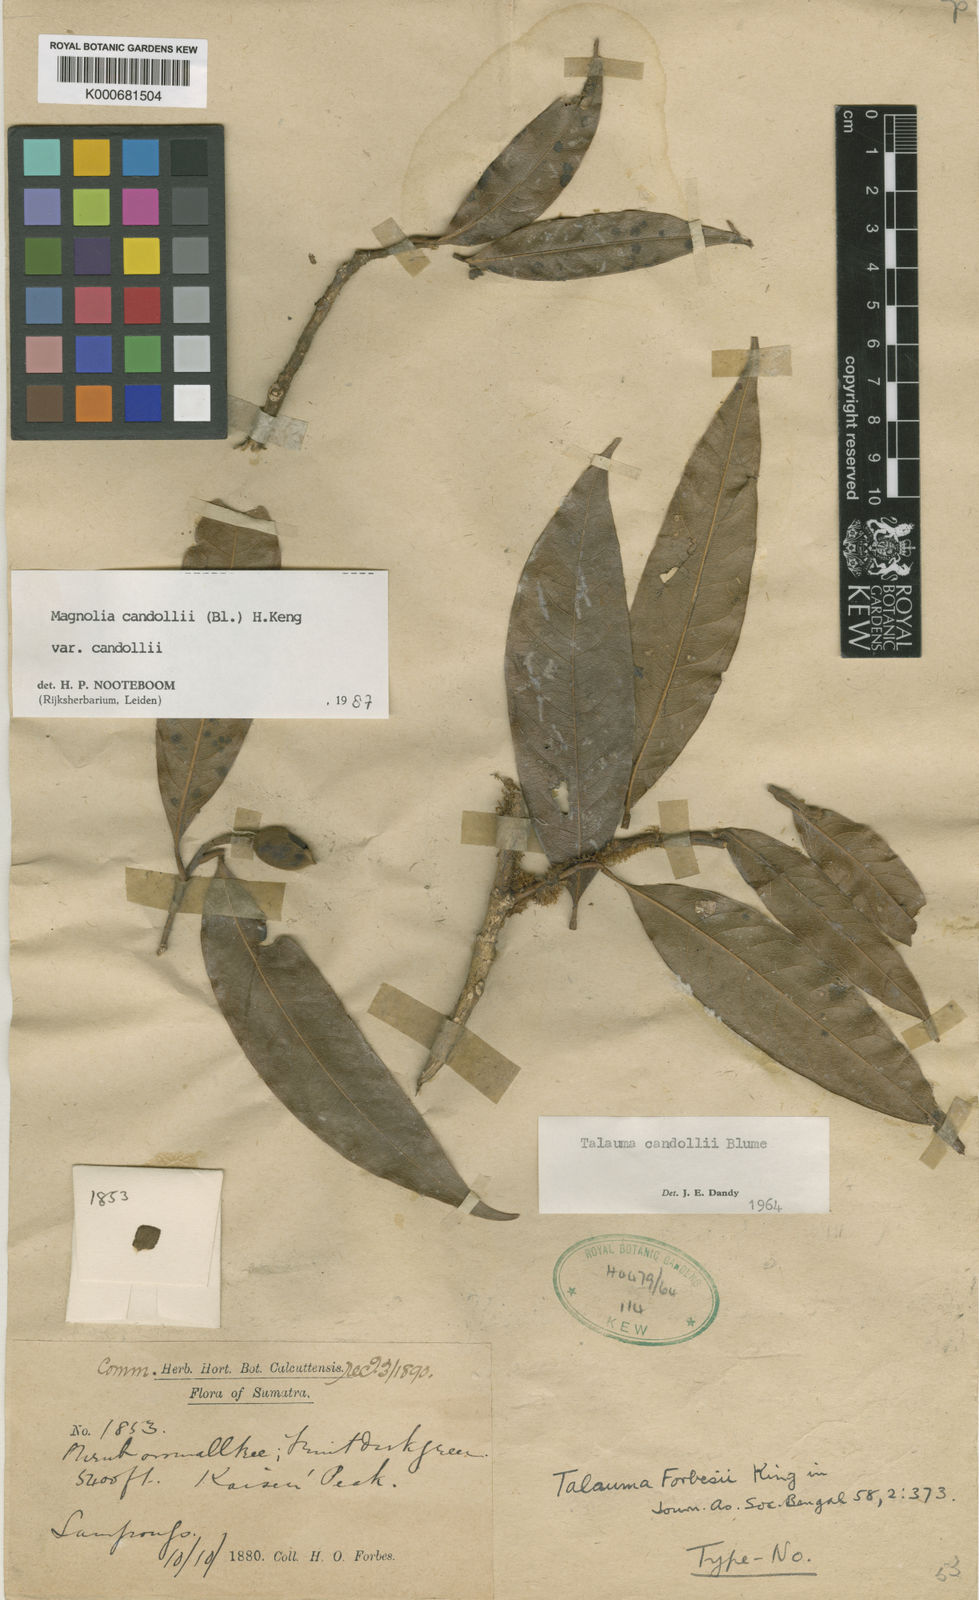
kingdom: Plantae
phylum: Tracheophyta
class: Magnoliopsida
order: Magnoliales
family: Magnoliaceae
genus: Magnolia
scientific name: Magnolia liliifera
